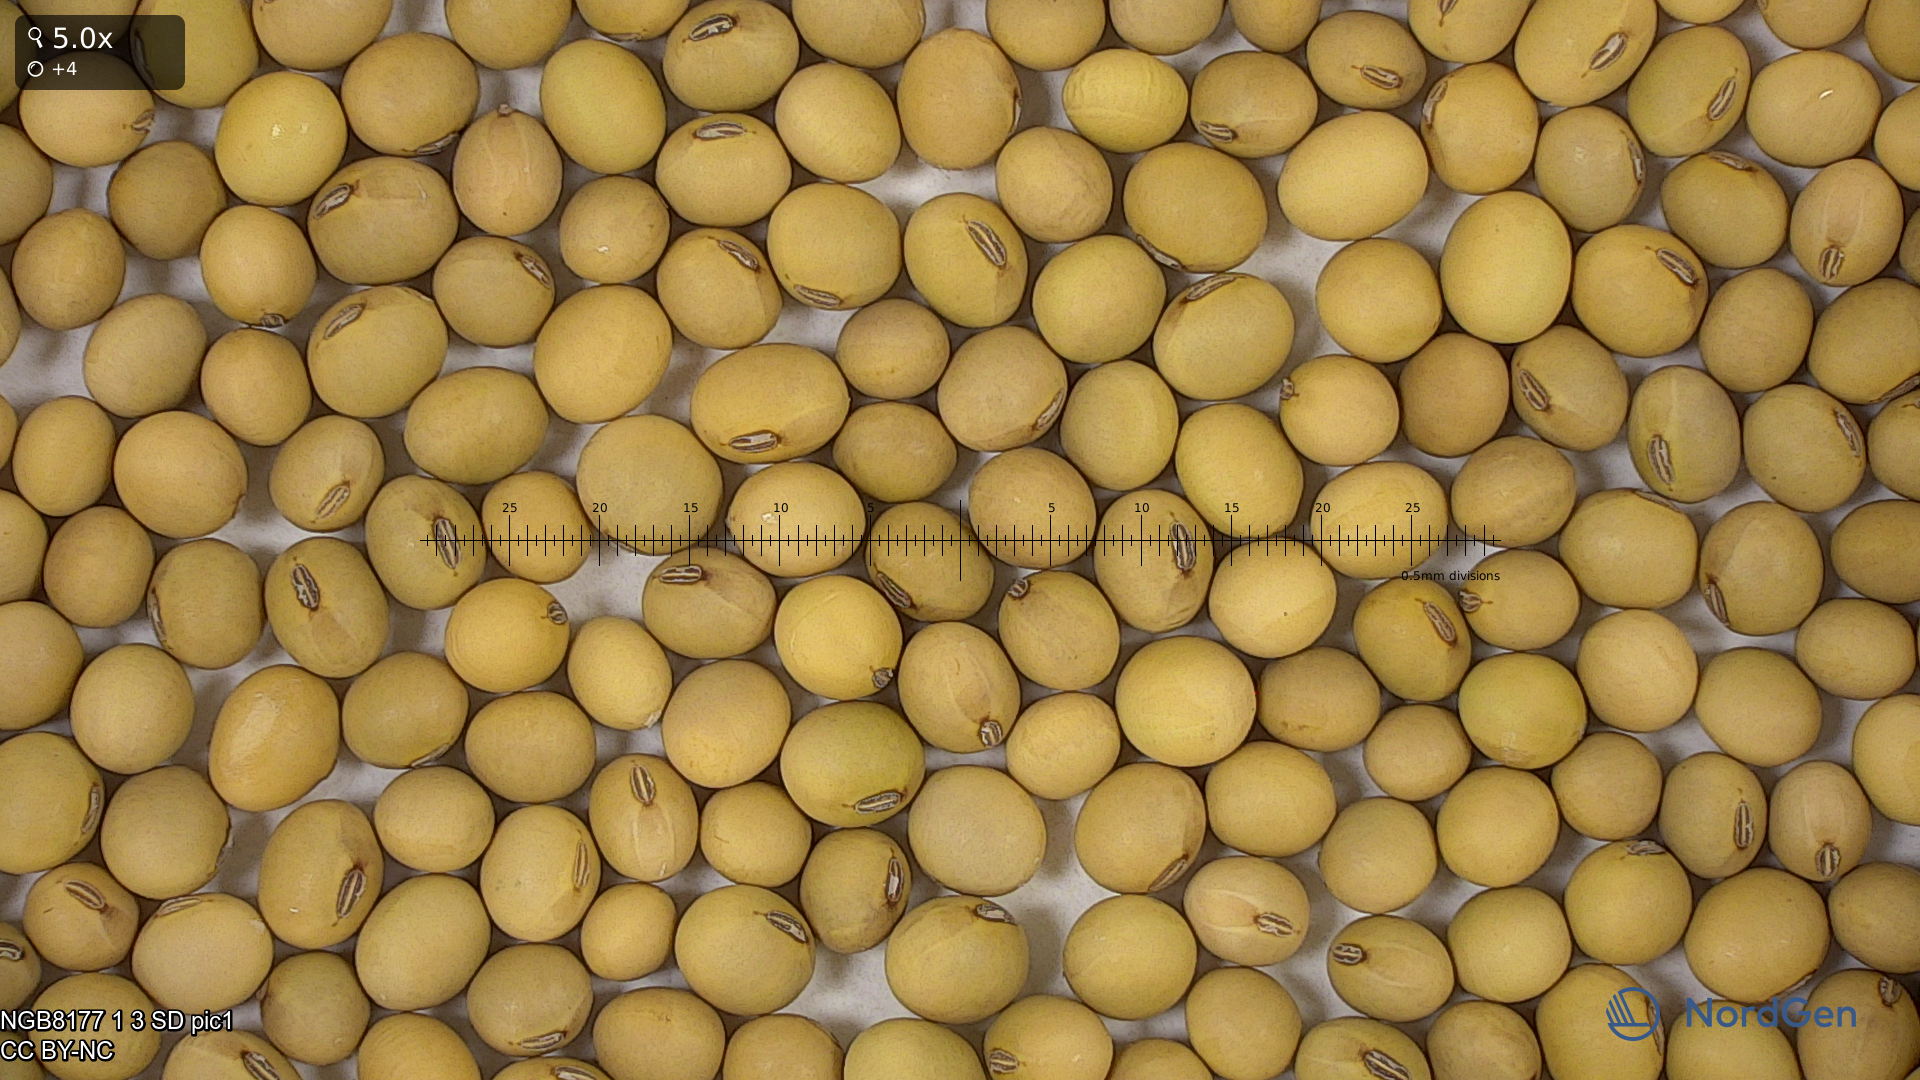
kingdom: Plantae
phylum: Tracheophyta
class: Magnoliopsida
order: Fabales
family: Fabaceae
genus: Glycine
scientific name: Glycine max
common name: Soya-bean
